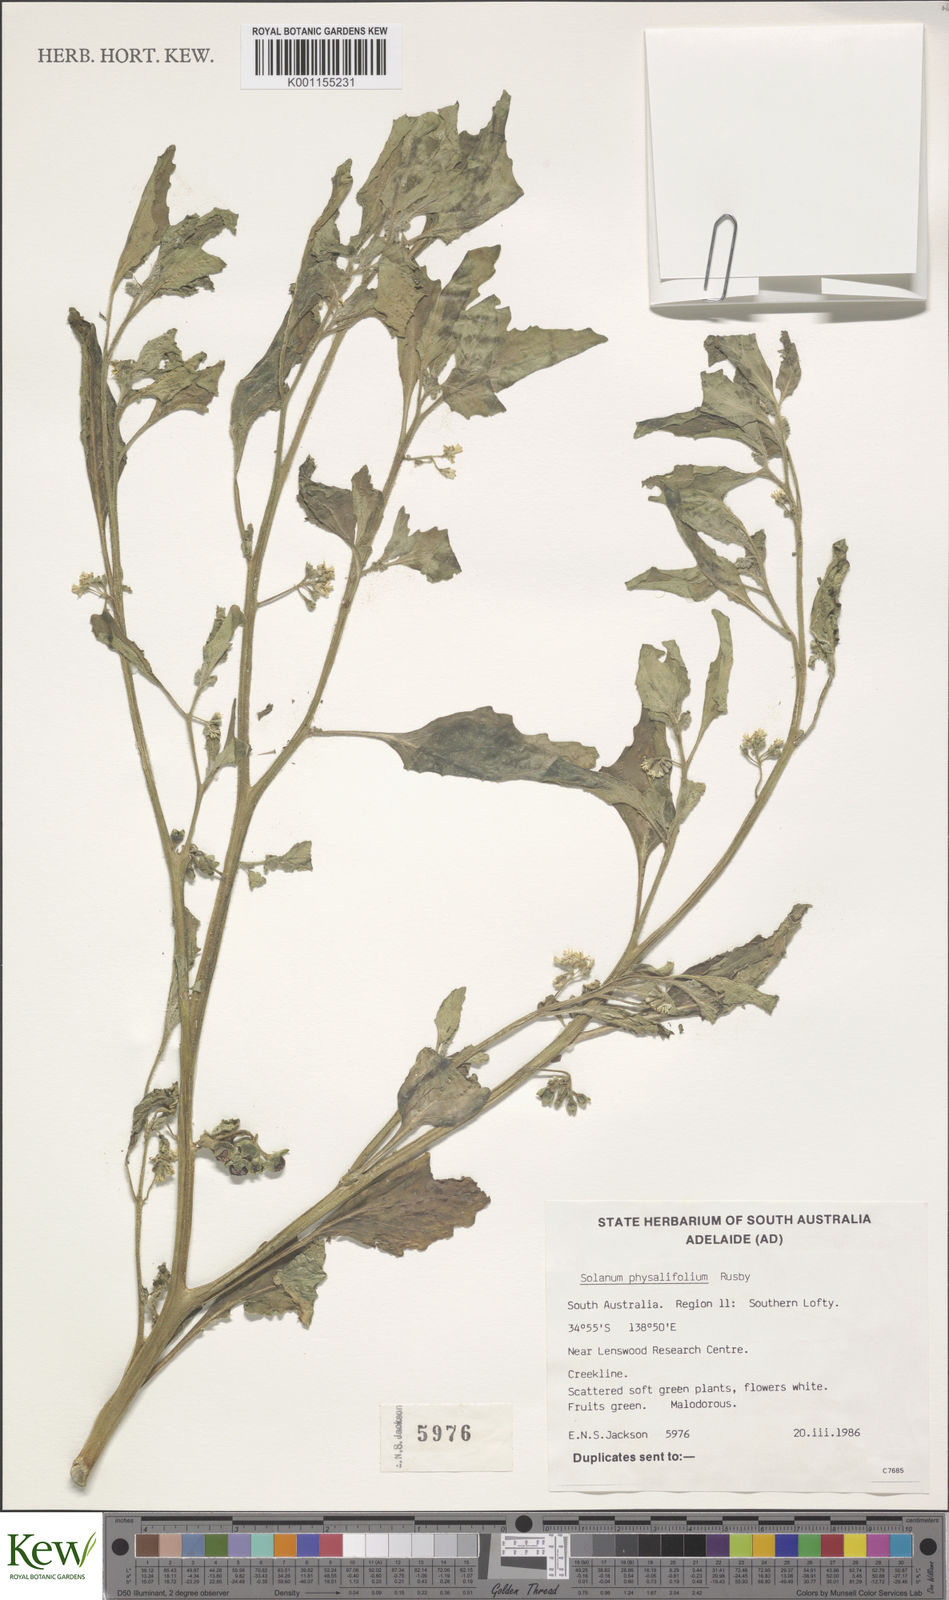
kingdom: Plantae
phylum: Tracheophyta
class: Magnoliopsida
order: Solanales
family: Solanaceae
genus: Solanum
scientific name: Solanum physalifolium
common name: Green nightshade
